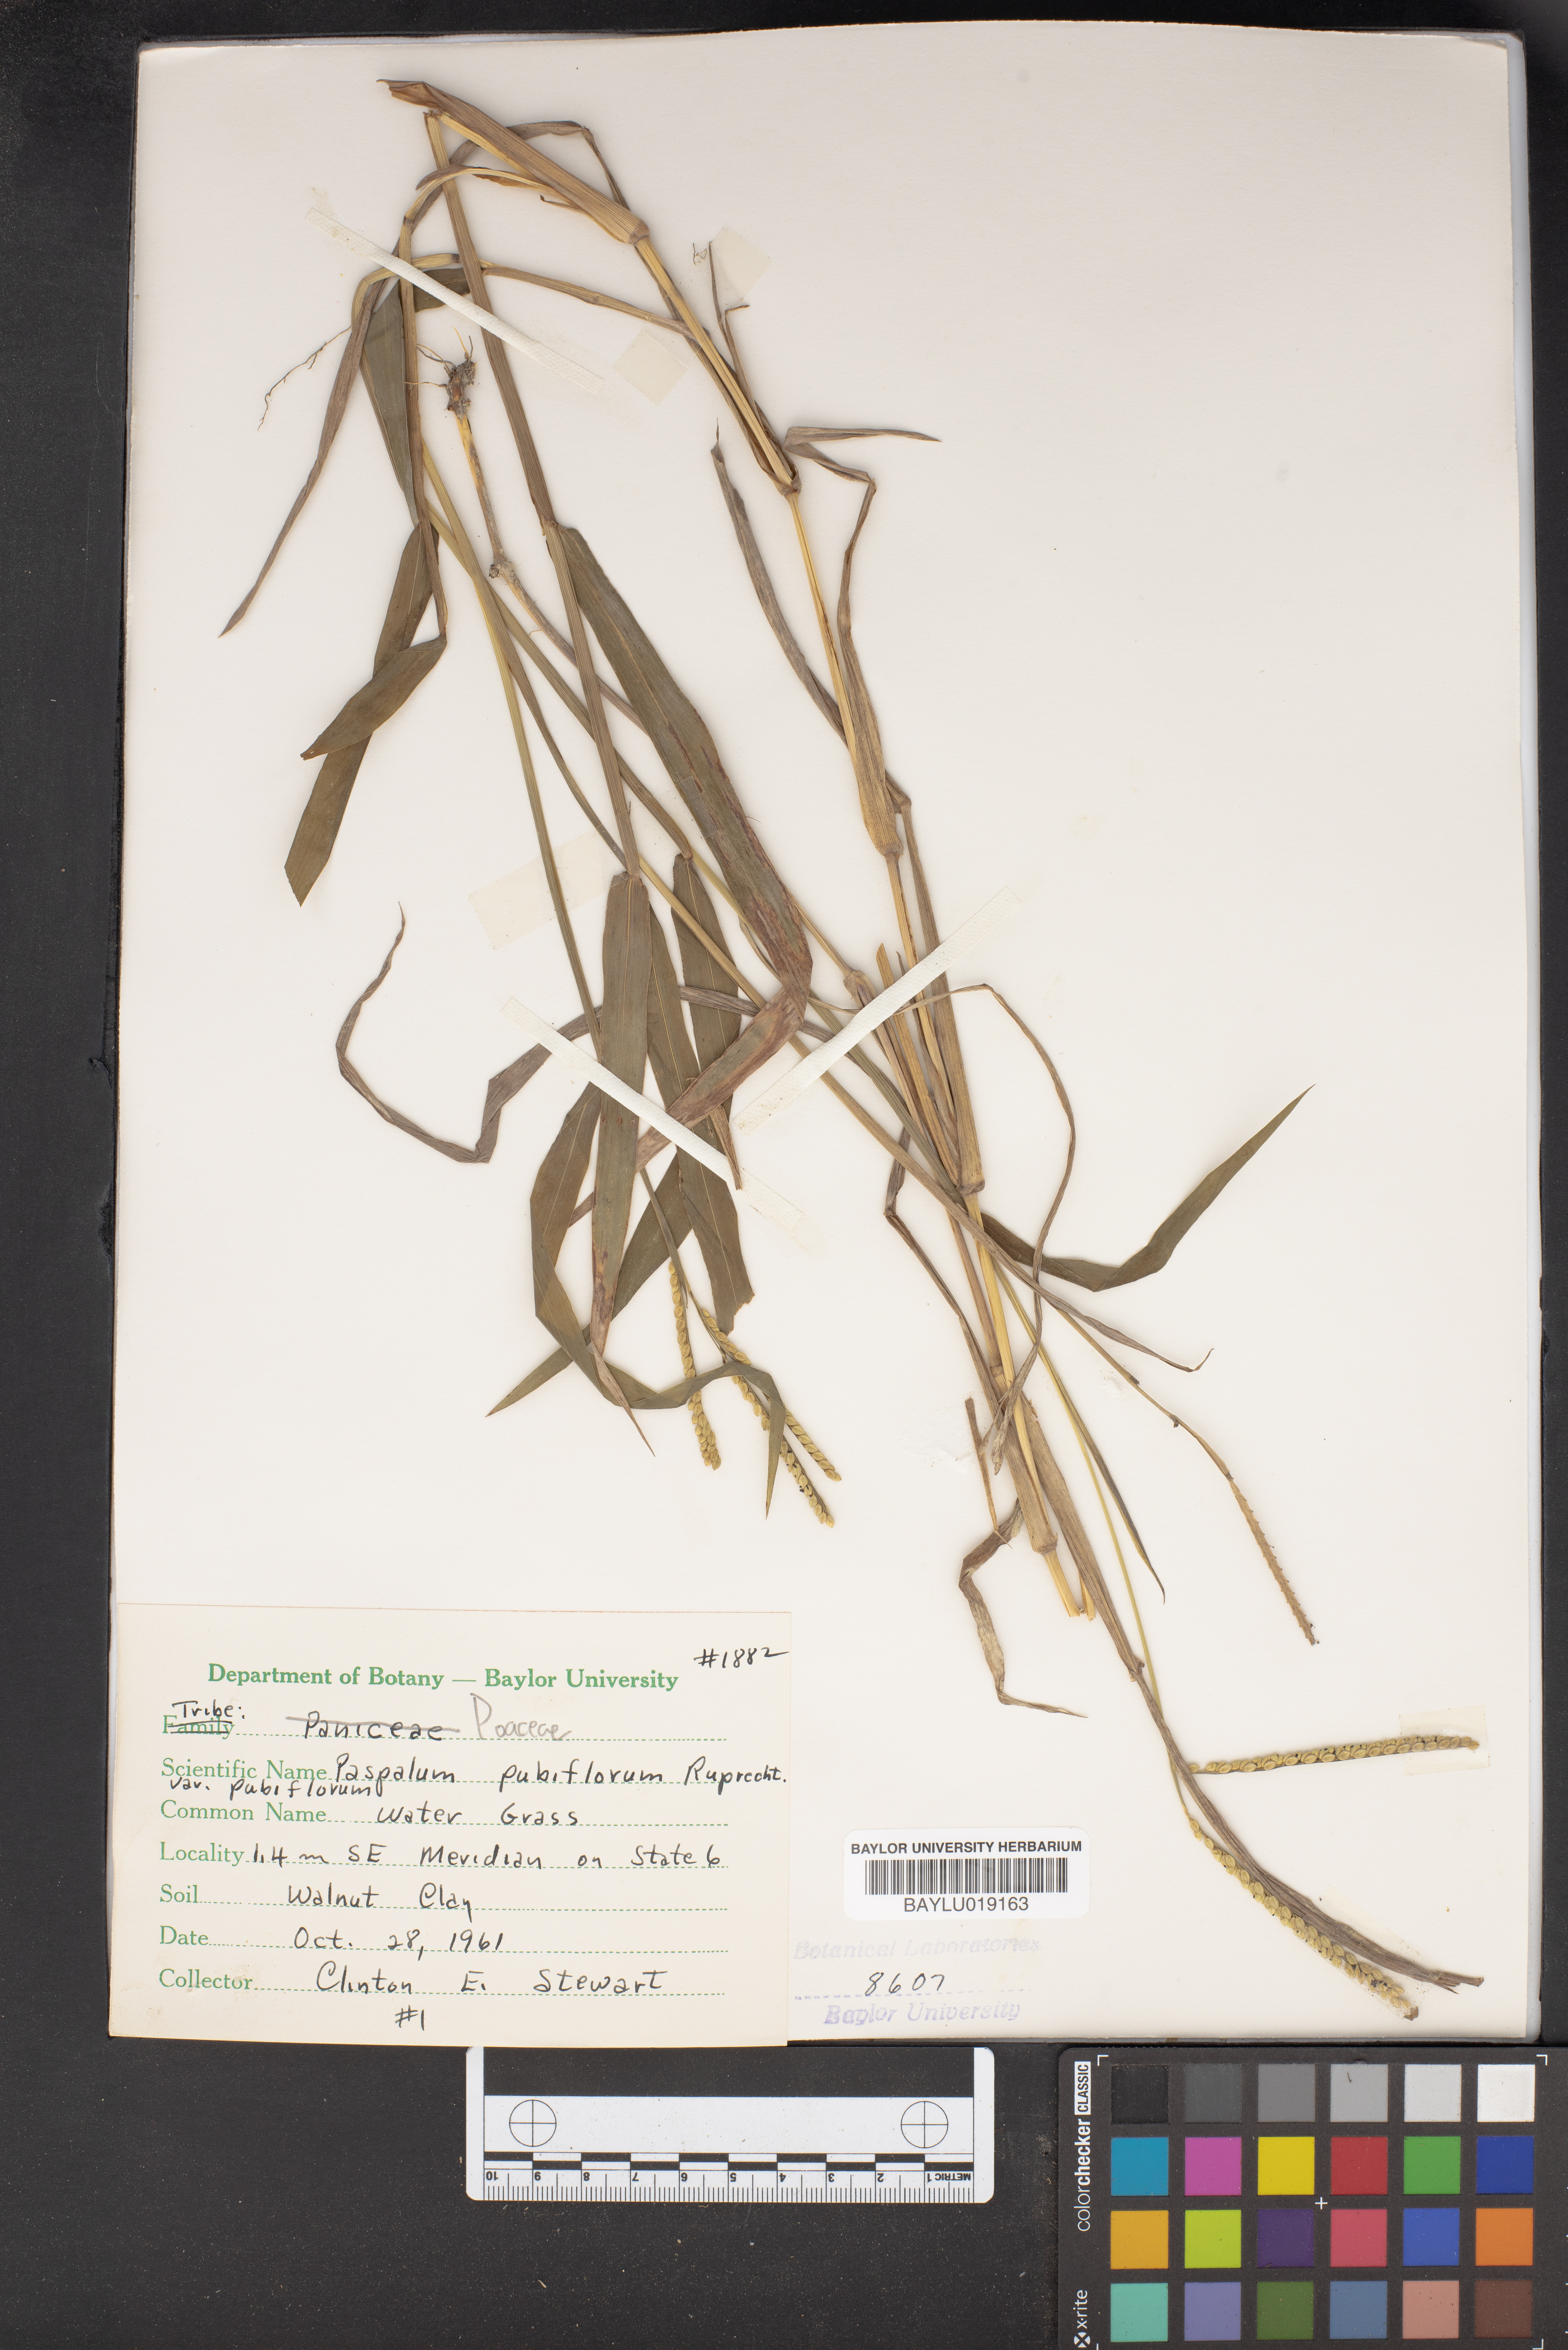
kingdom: Plantae
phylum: Tracheophyta
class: Liliopsida
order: Poales
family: Poaceae
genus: Paspalum
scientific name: Paspalum pubiflorum
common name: Hairy-seed paspalum
